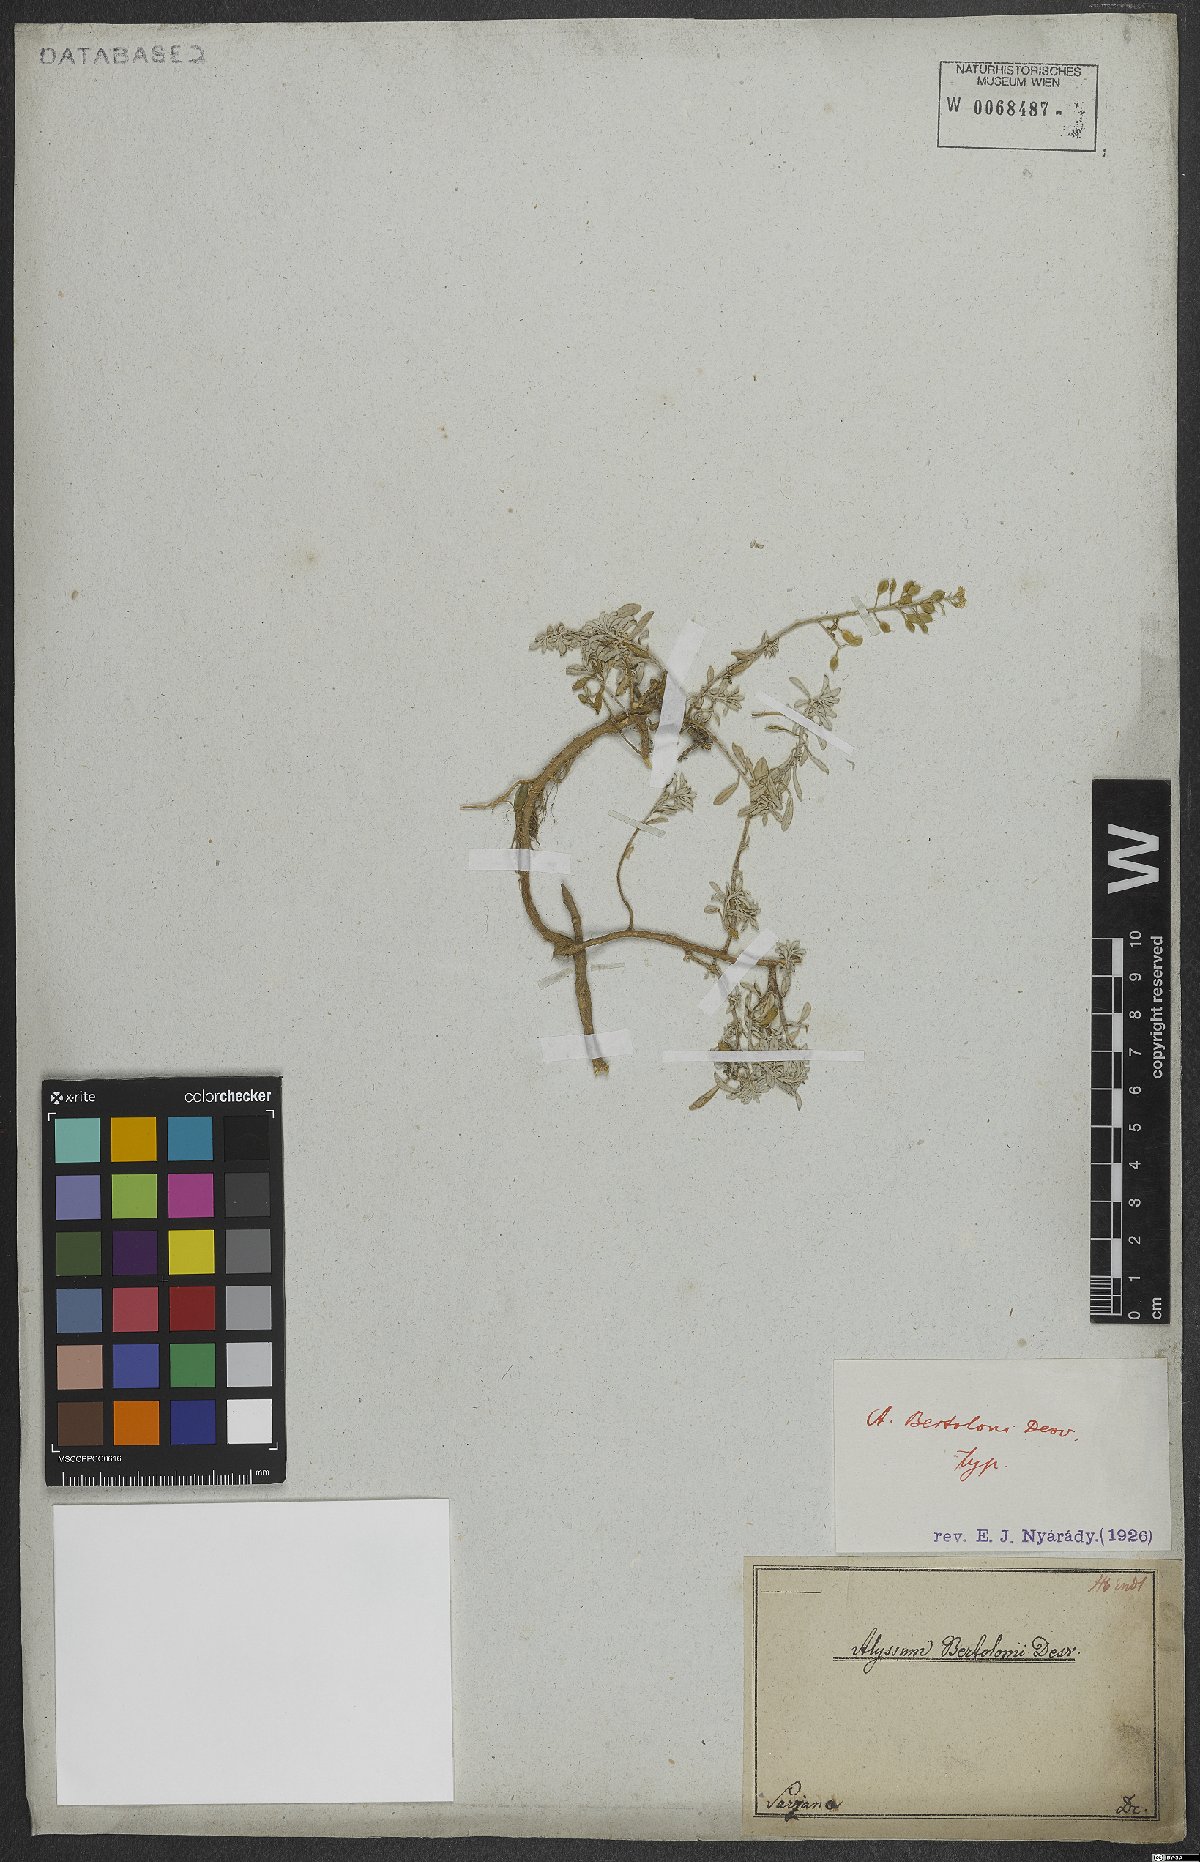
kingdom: Plantae
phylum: Tracheophyta
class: Magnoliopsida
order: Brassicales
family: Brassicaceae
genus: Odontarrhena
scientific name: Odontarrhena bertolonii
